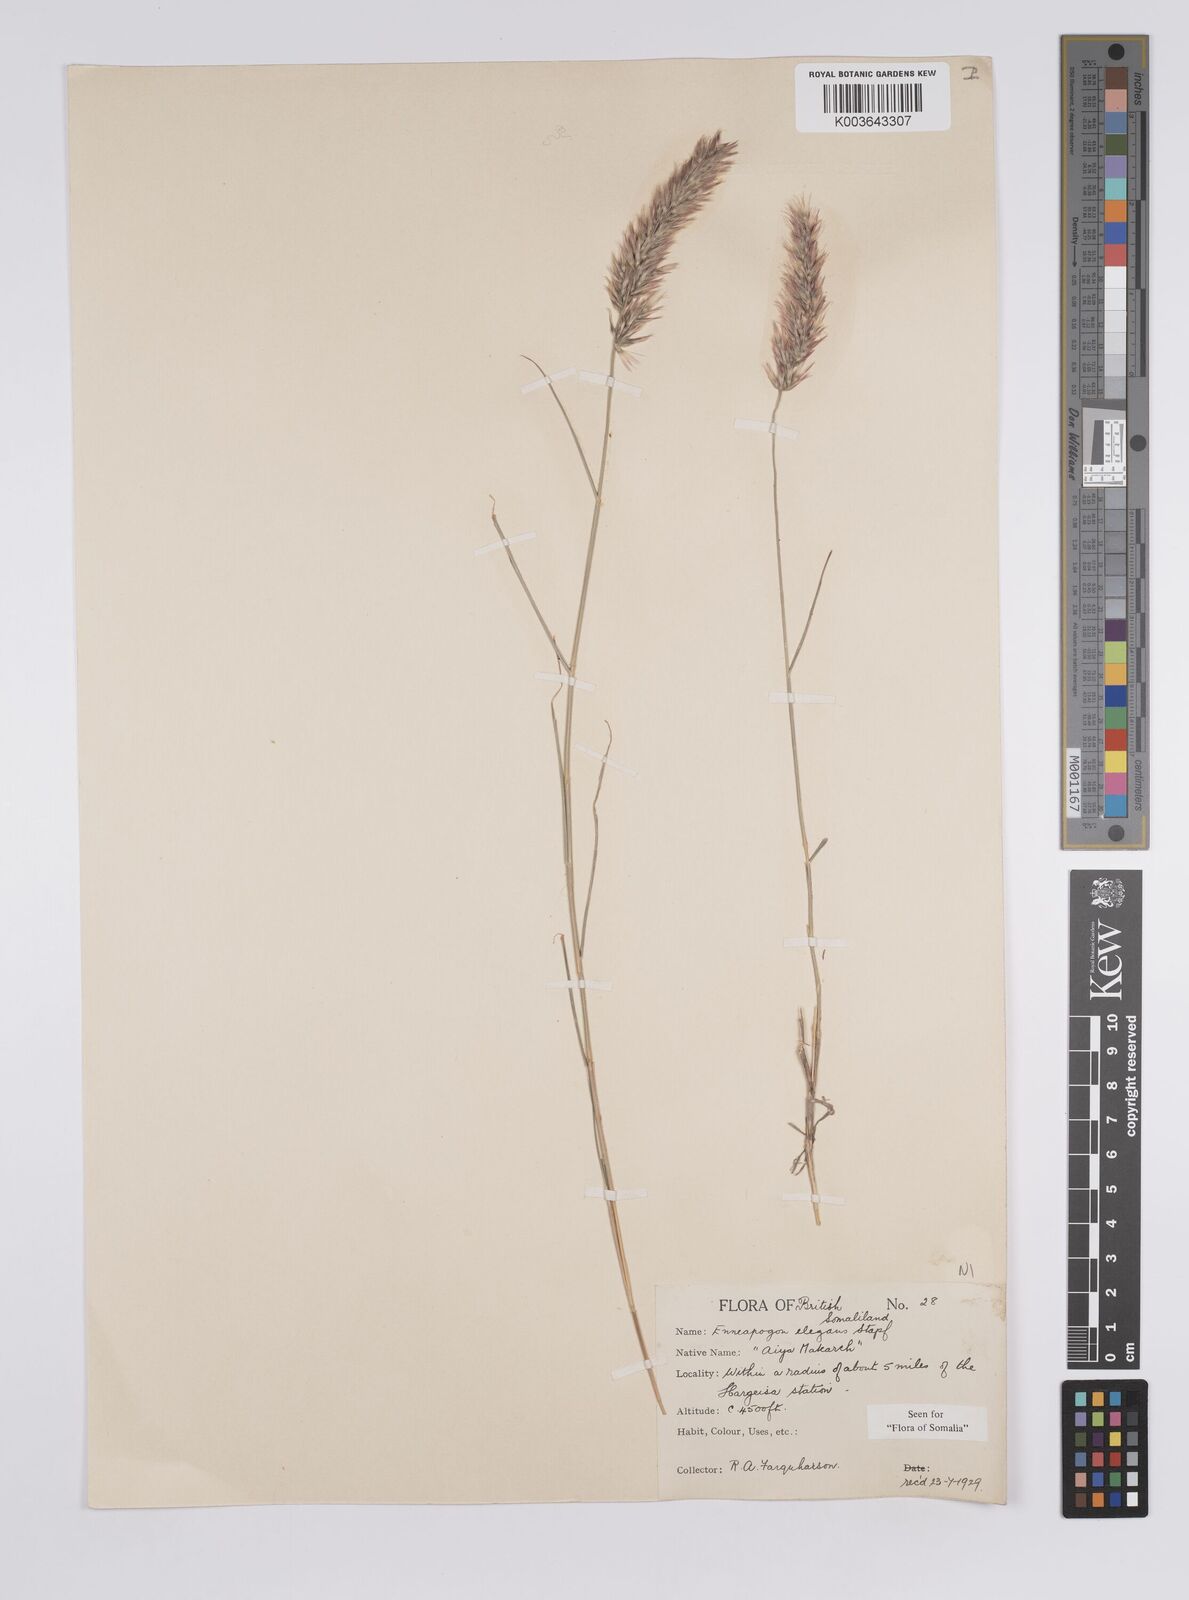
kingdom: Plantae
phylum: Tracheophyta
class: Liliopsida
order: Poales
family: Poaceae
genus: Enneapogon
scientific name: Enneapogon persicus
